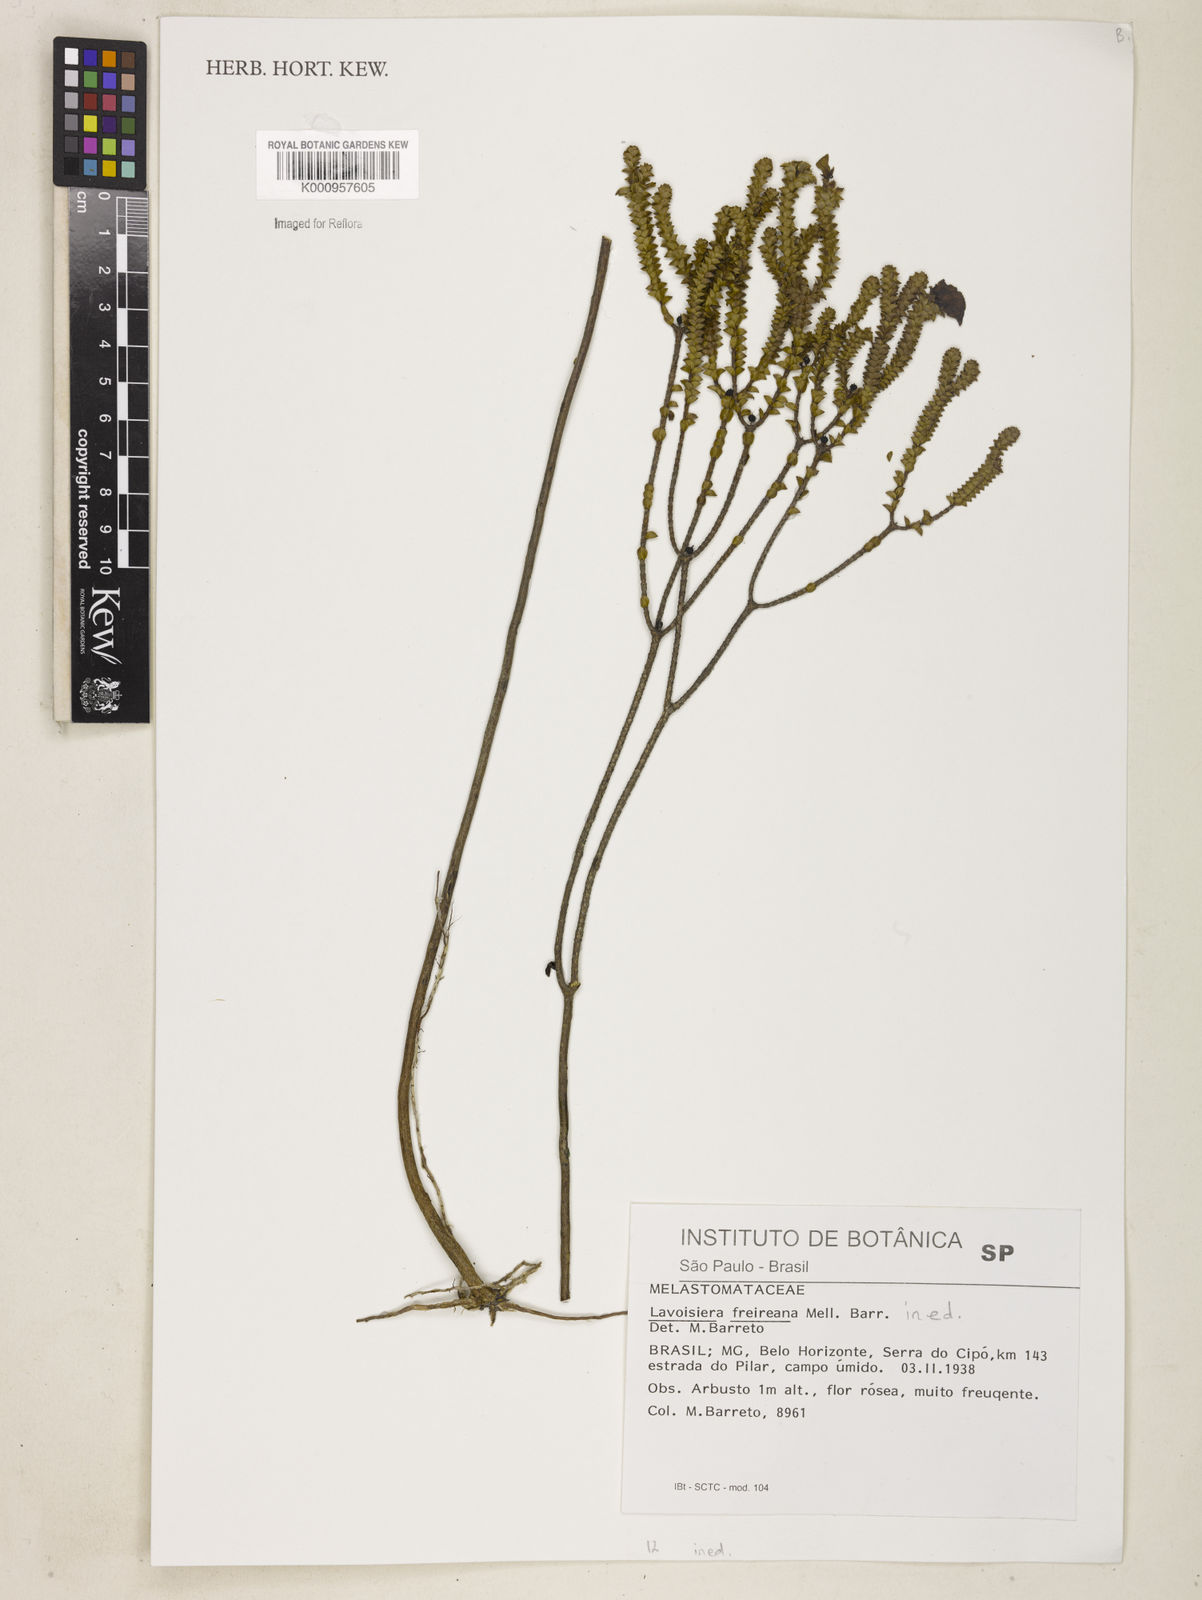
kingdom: Plantae
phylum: Tracheophyta
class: Magnoliopsida
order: Myrtales
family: Melastomataceae
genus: Microlicia
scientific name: Microlicia
